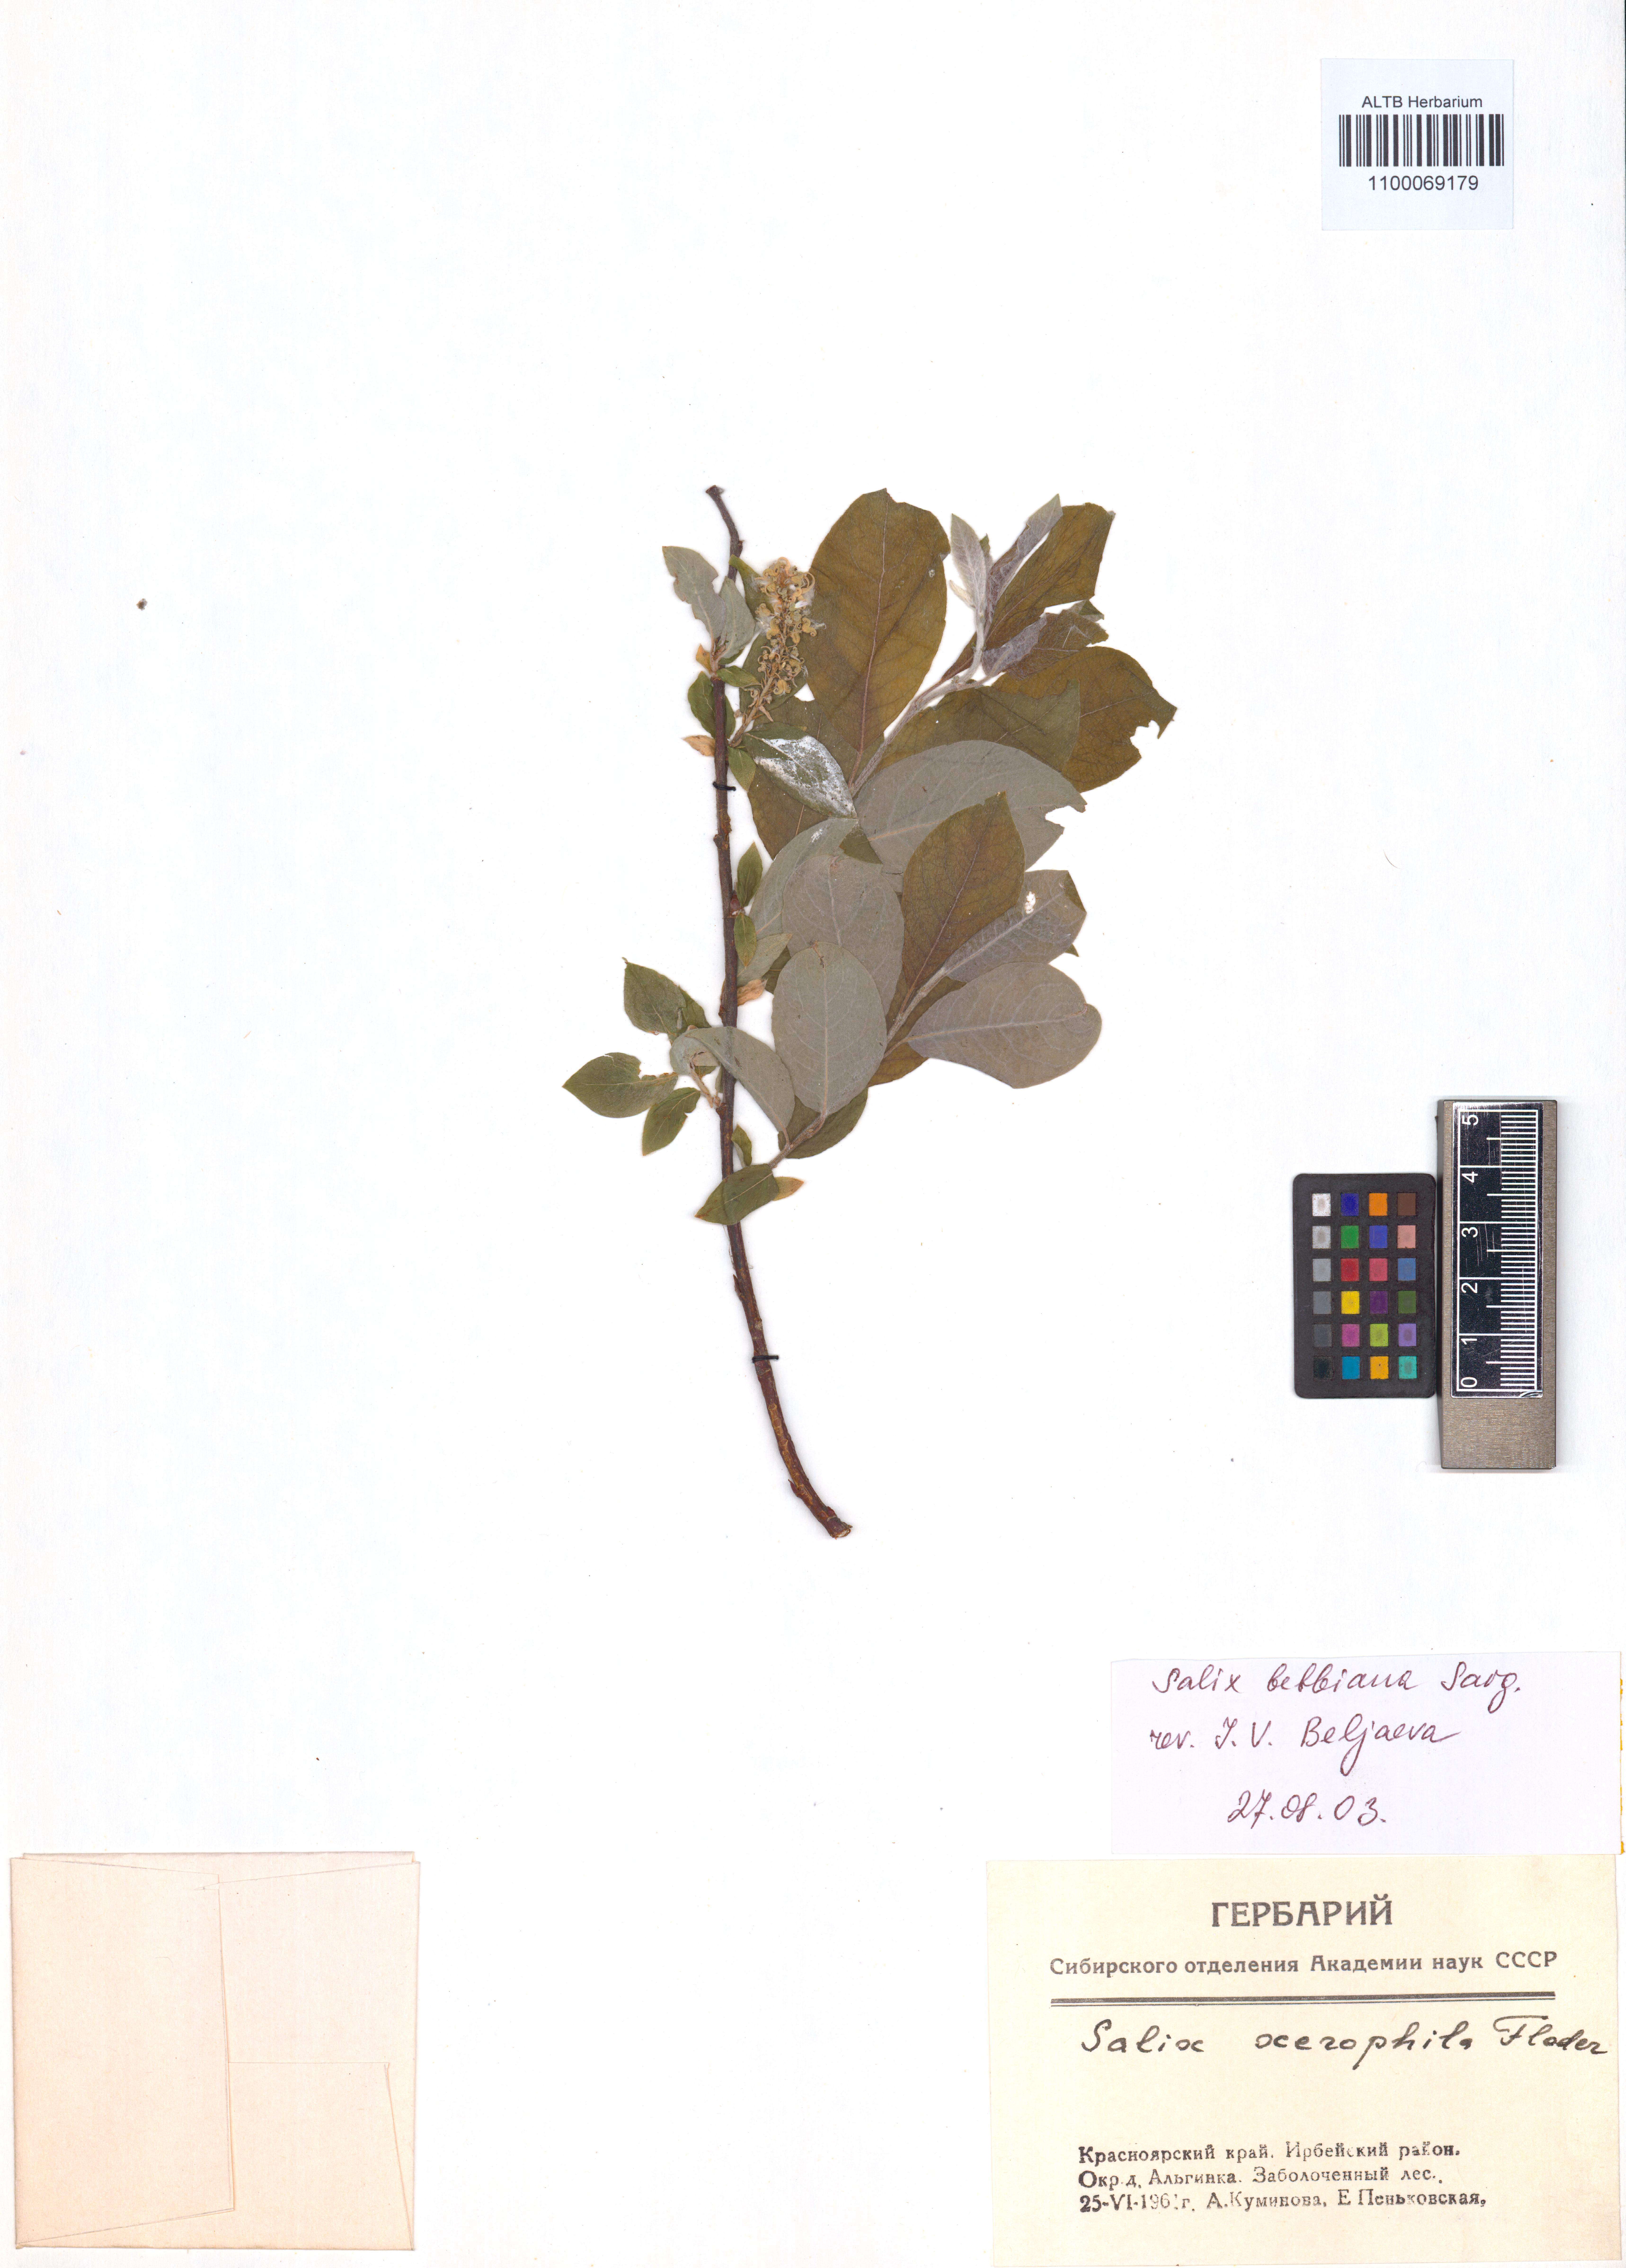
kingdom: Plantae
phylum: Tracheophyta
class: Magnoliopsida
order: Malpighiales
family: Salicaceae
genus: Salix
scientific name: Salix bebbiana
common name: Bebb's willow
